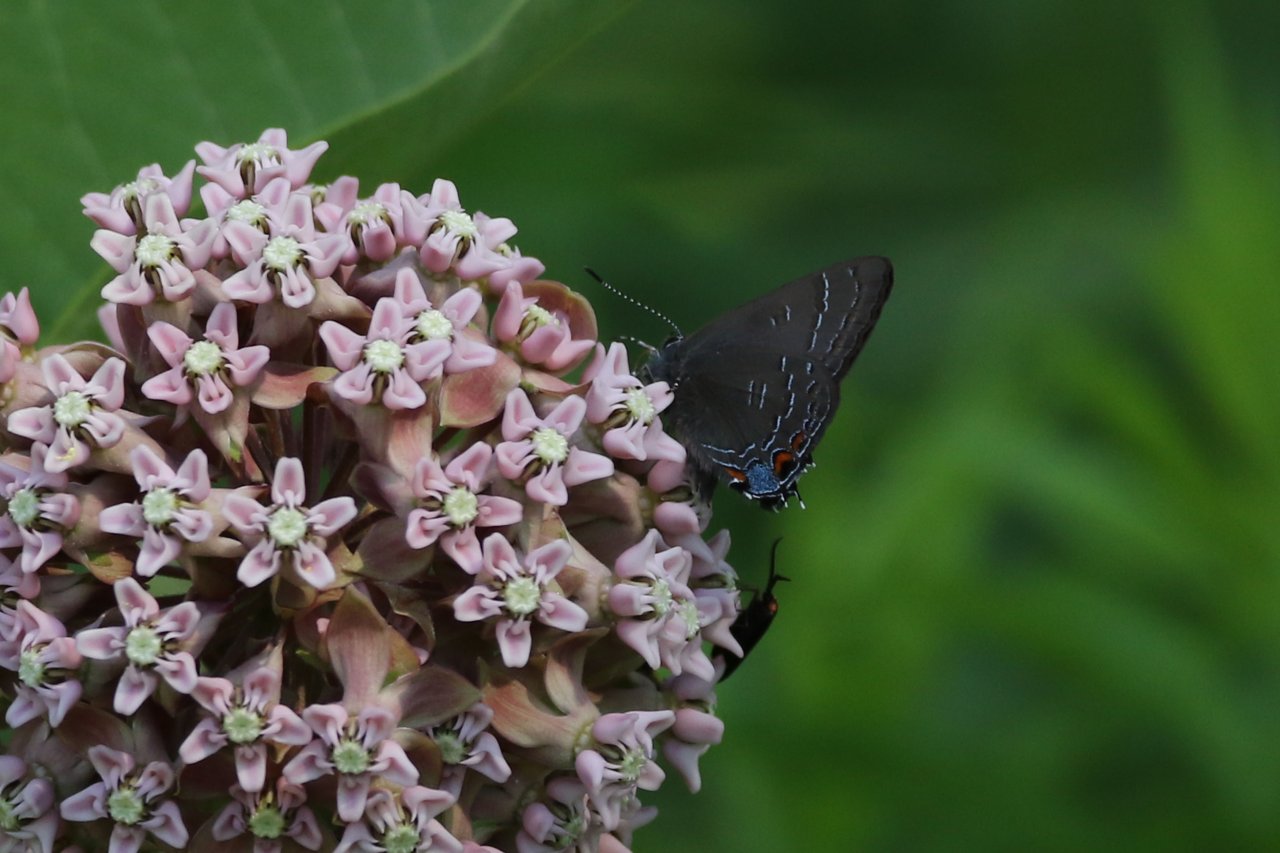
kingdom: Animalia
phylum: Arthropoda
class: Insecta
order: Lepidoptera
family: Lycaenidae
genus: Satyrium
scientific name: Satyrium calanus
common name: Banded Hairstreak
